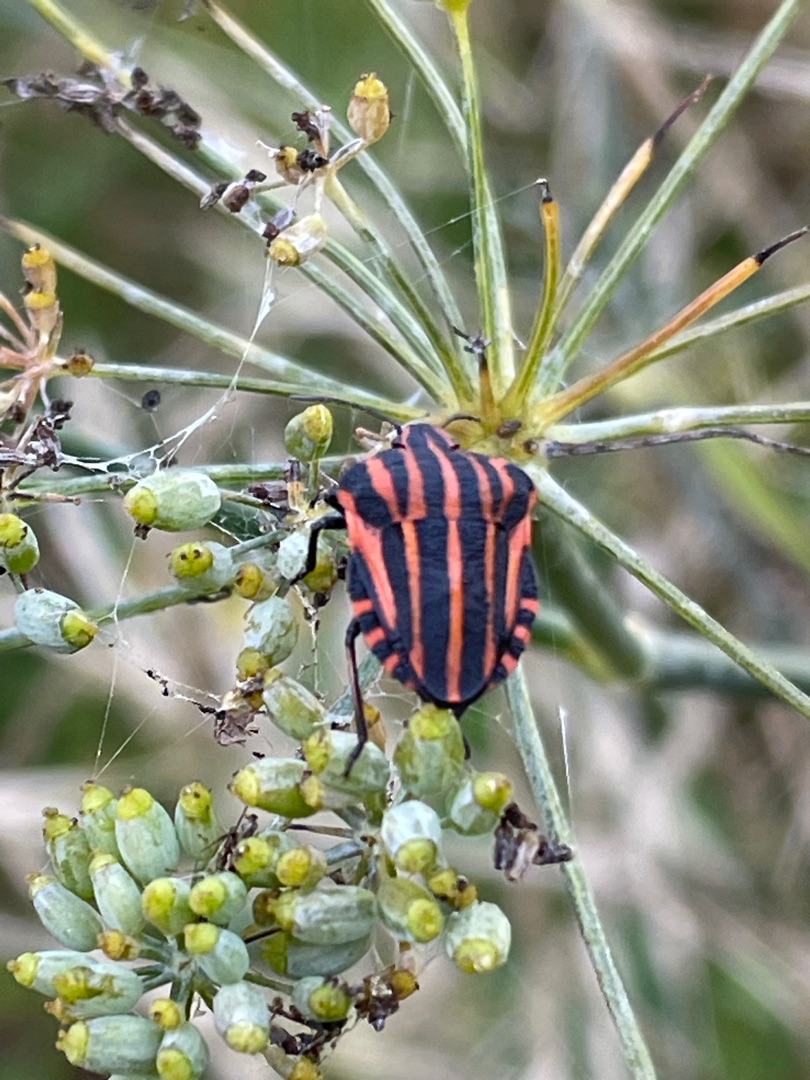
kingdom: Animalia
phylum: Arthropoda
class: Insecta
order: Hemiptera
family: Pentatomidae
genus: Graphosoma
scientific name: Graphosoma italicum
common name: Stribetæge
